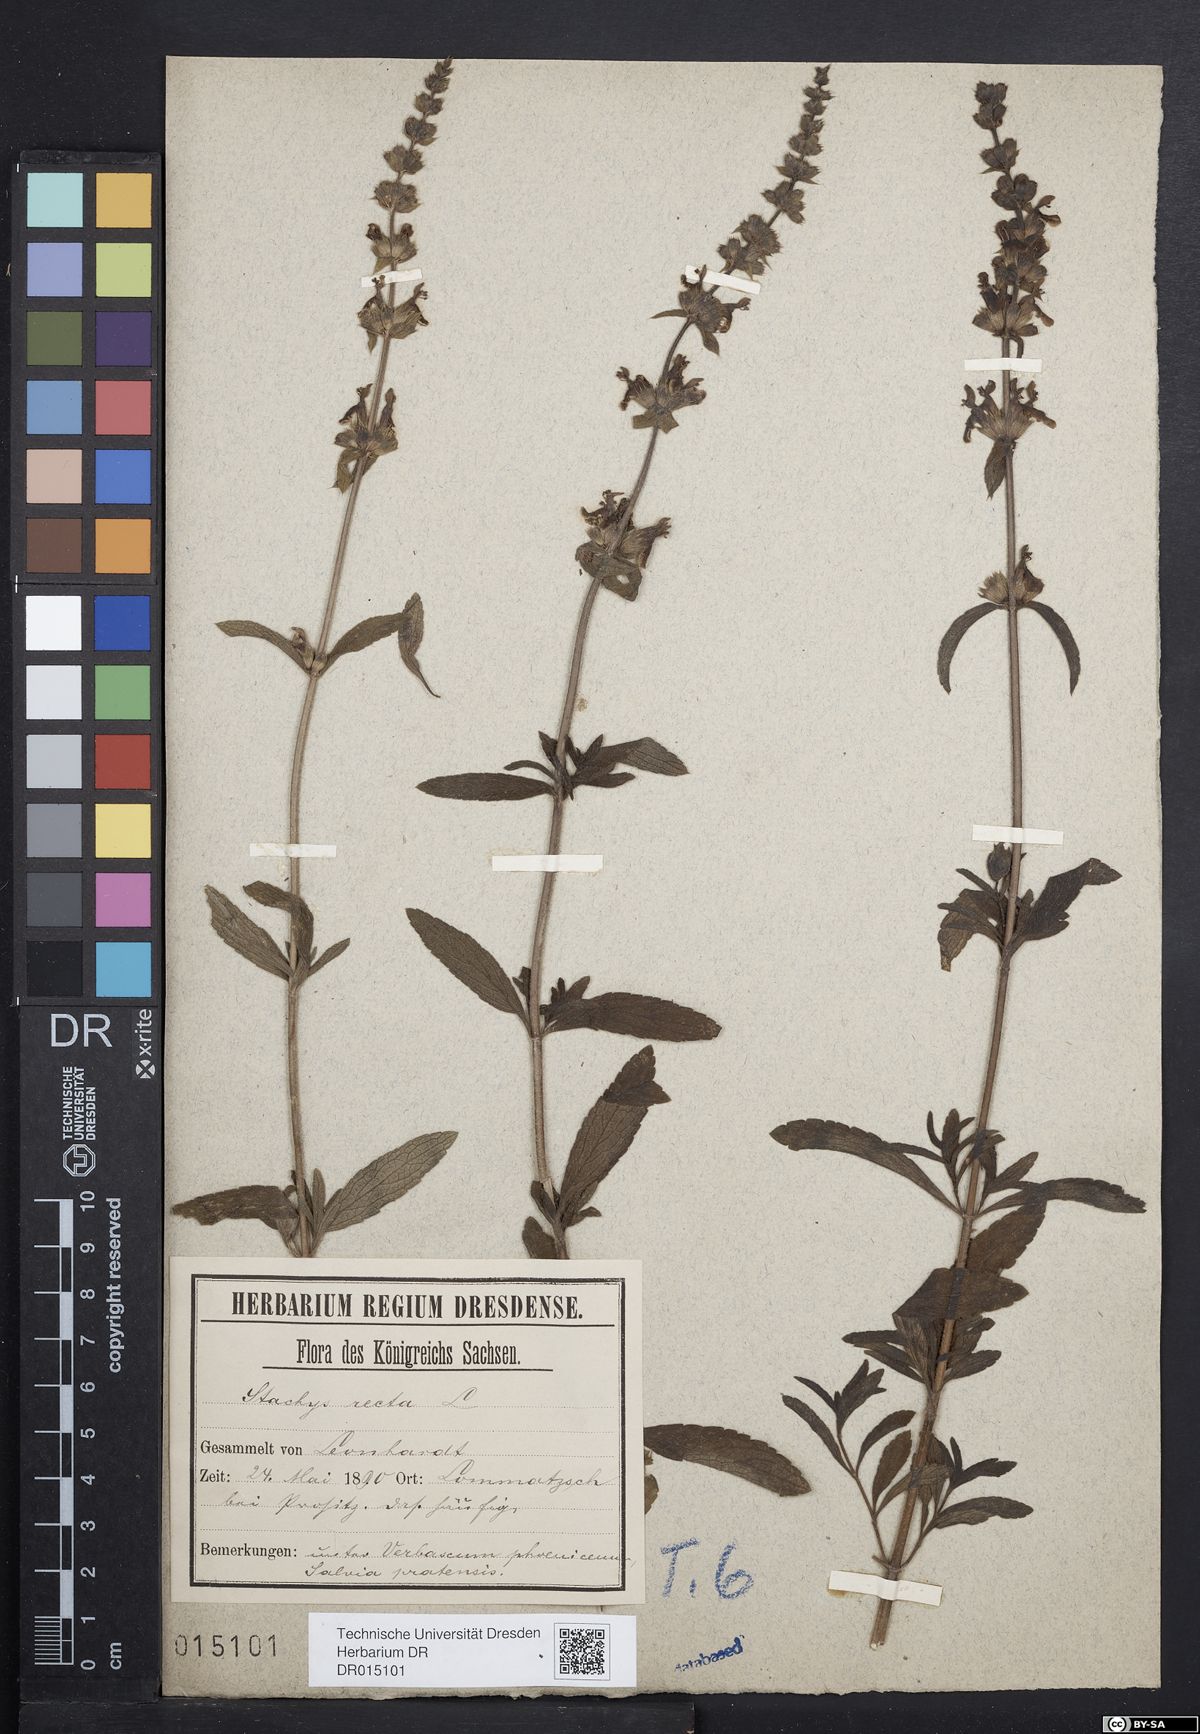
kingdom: Plantae
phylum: Tracheophyta
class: Magnoliopsida
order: Lamiales
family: Lamiaceae
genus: Stachys
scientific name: Stachys recta
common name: Perennial yellow-woundwort
